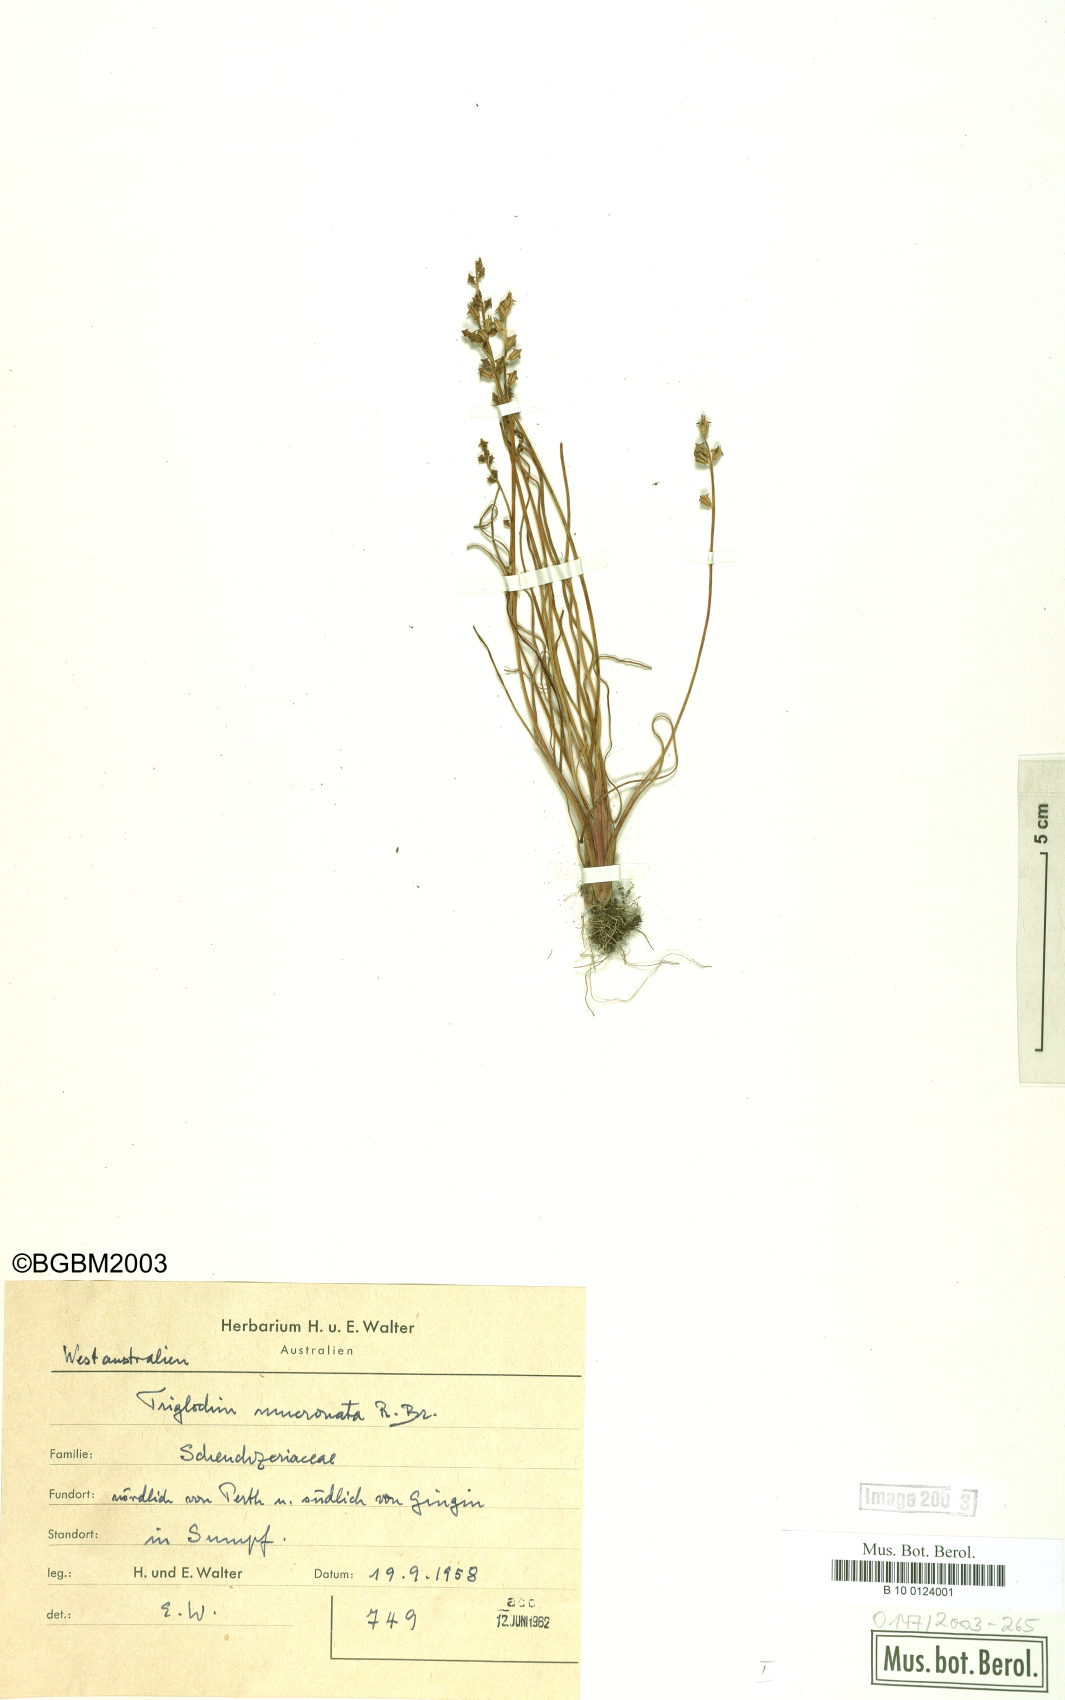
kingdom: Plantae
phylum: Tracheophyta
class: Liliopsida
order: Alismatales
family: Juncaginaceae
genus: Triglochin
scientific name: Triglochin mucronata
